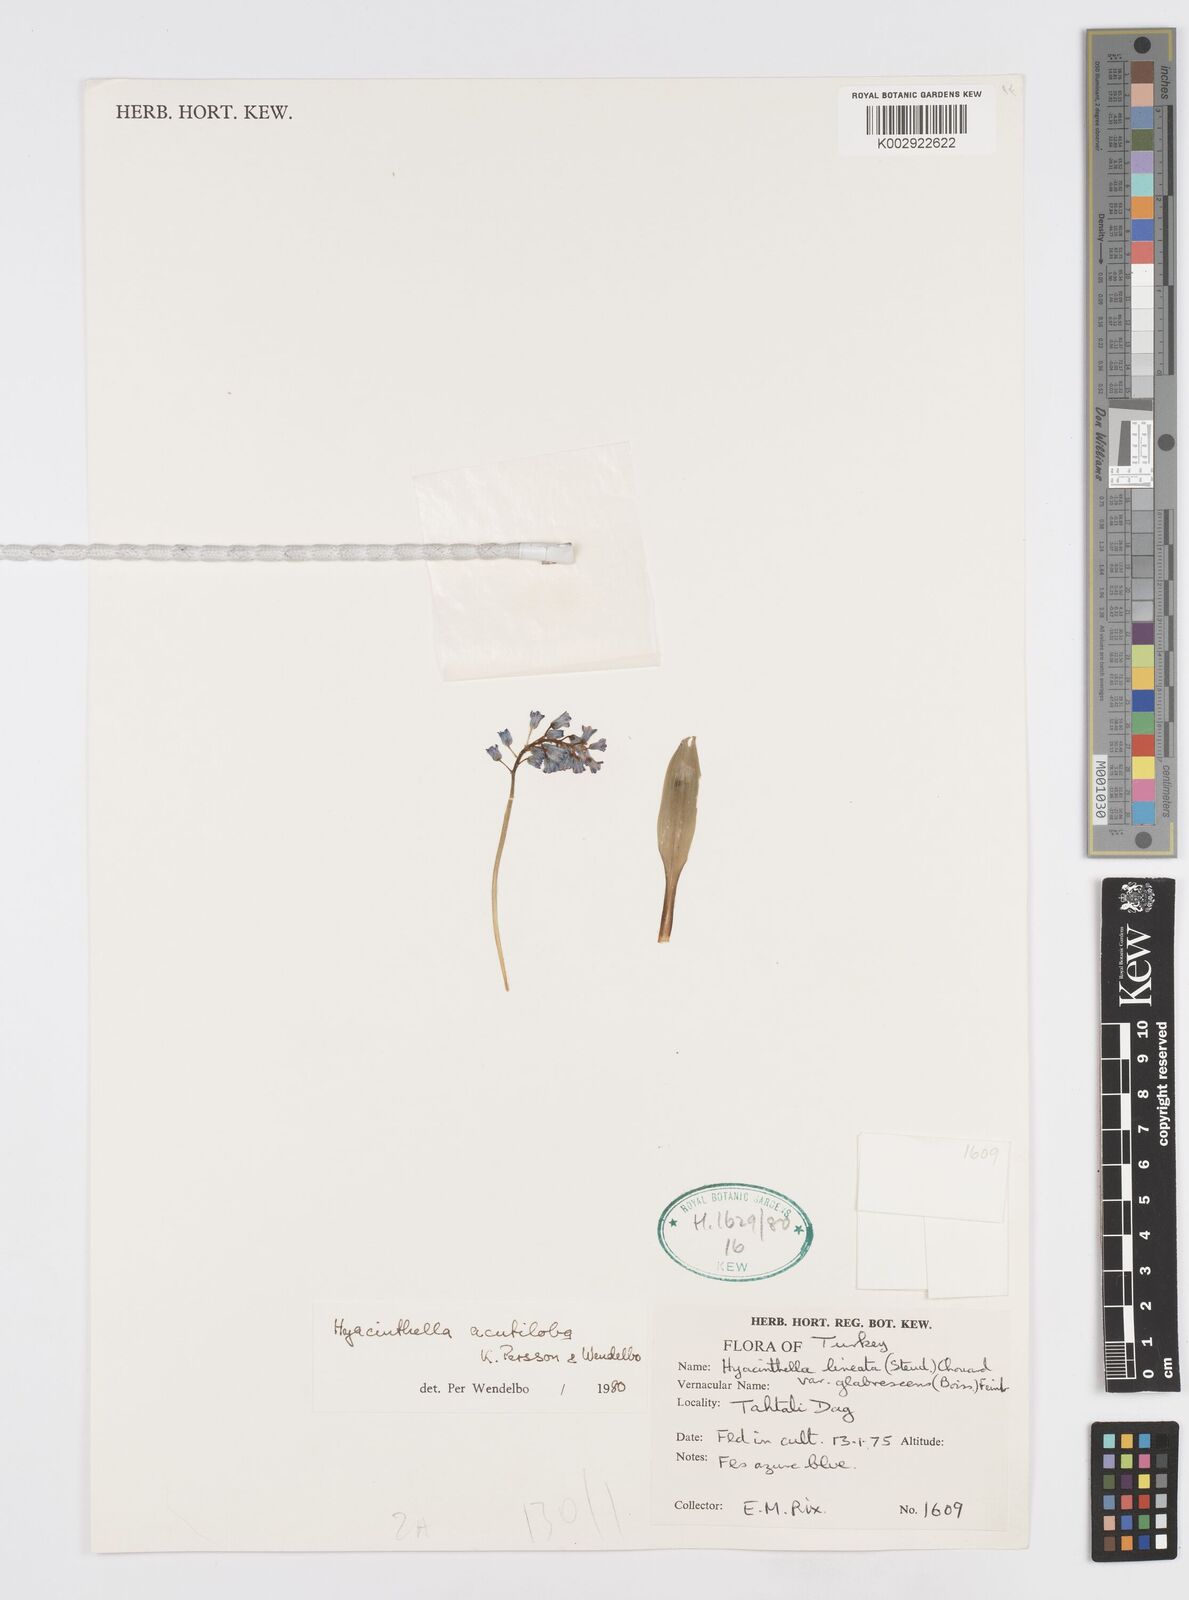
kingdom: Plantae
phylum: Tracheophyta
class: Liliopsida
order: Asparagales
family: Asparagaceae
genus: Hyacinthella
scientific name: Hyacinthella acutiloba
